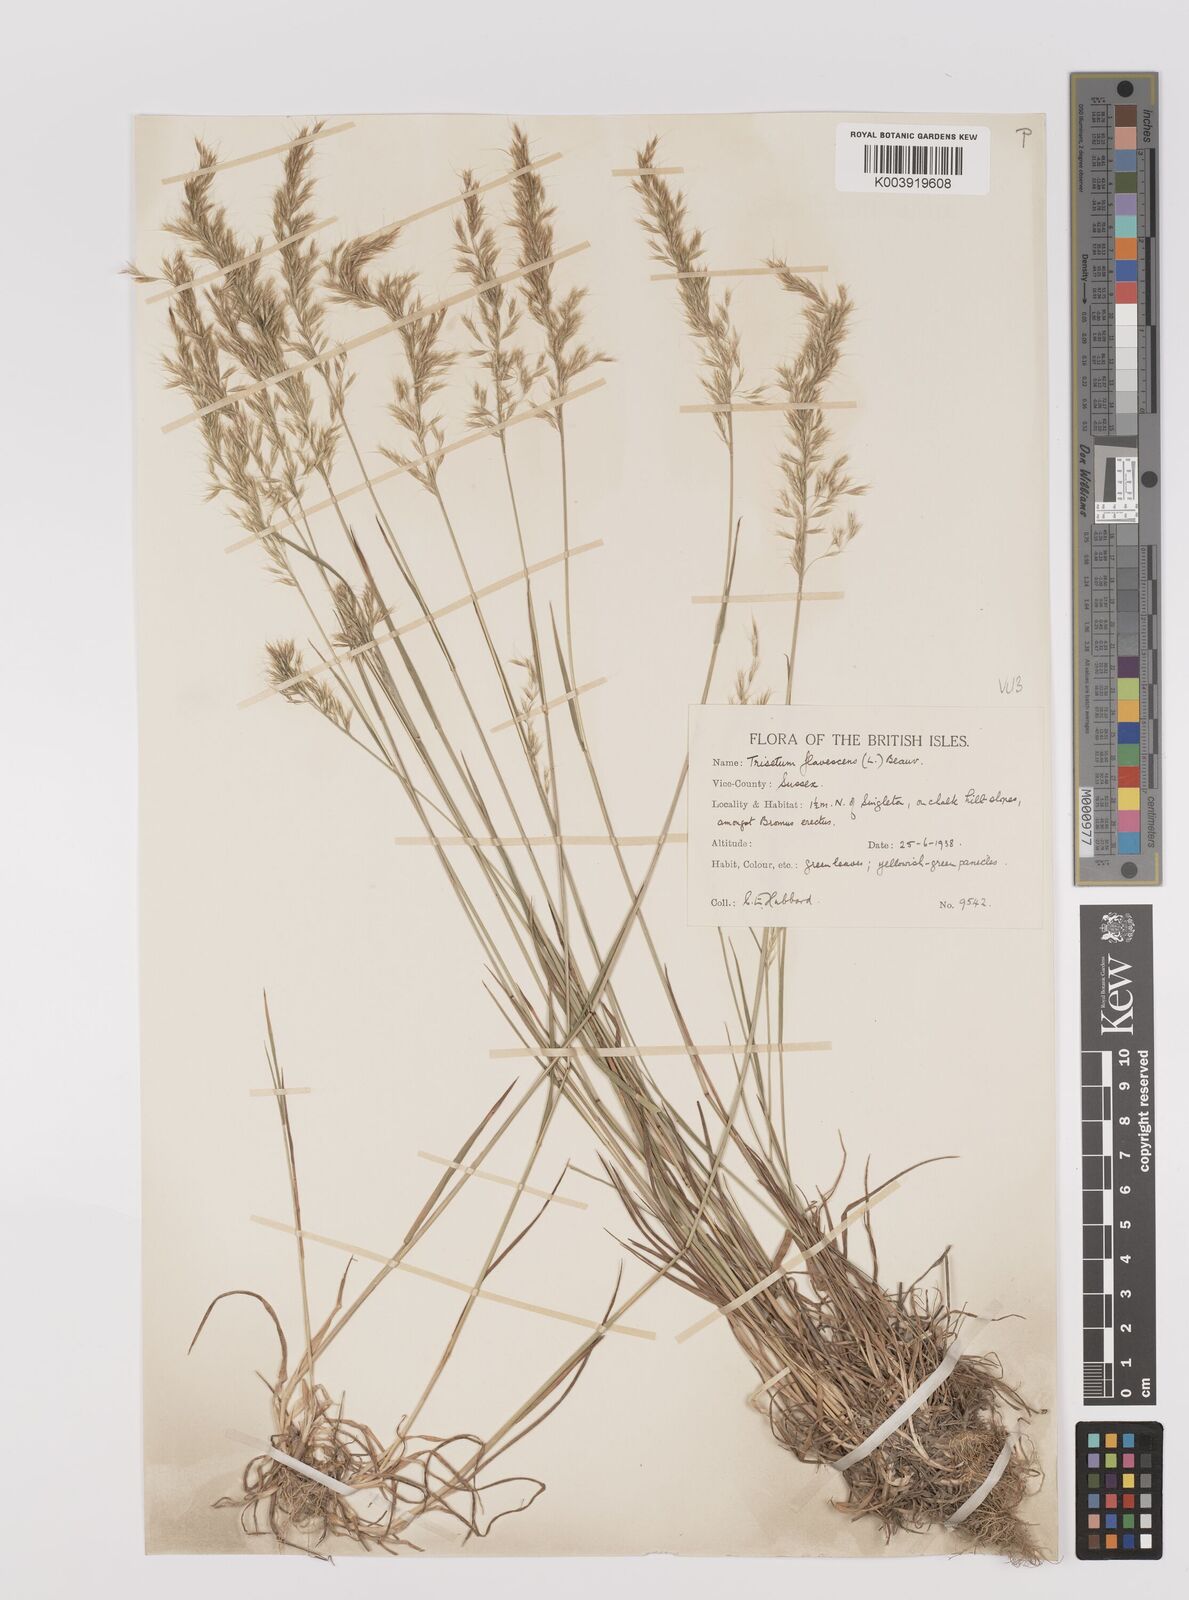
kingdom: Plantae
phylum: Tracheophyta
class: Liliopsida
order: Poales
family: Poaceae
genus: Trisetum
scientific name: Trisetum flavescens
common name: Yellow oat-grass
